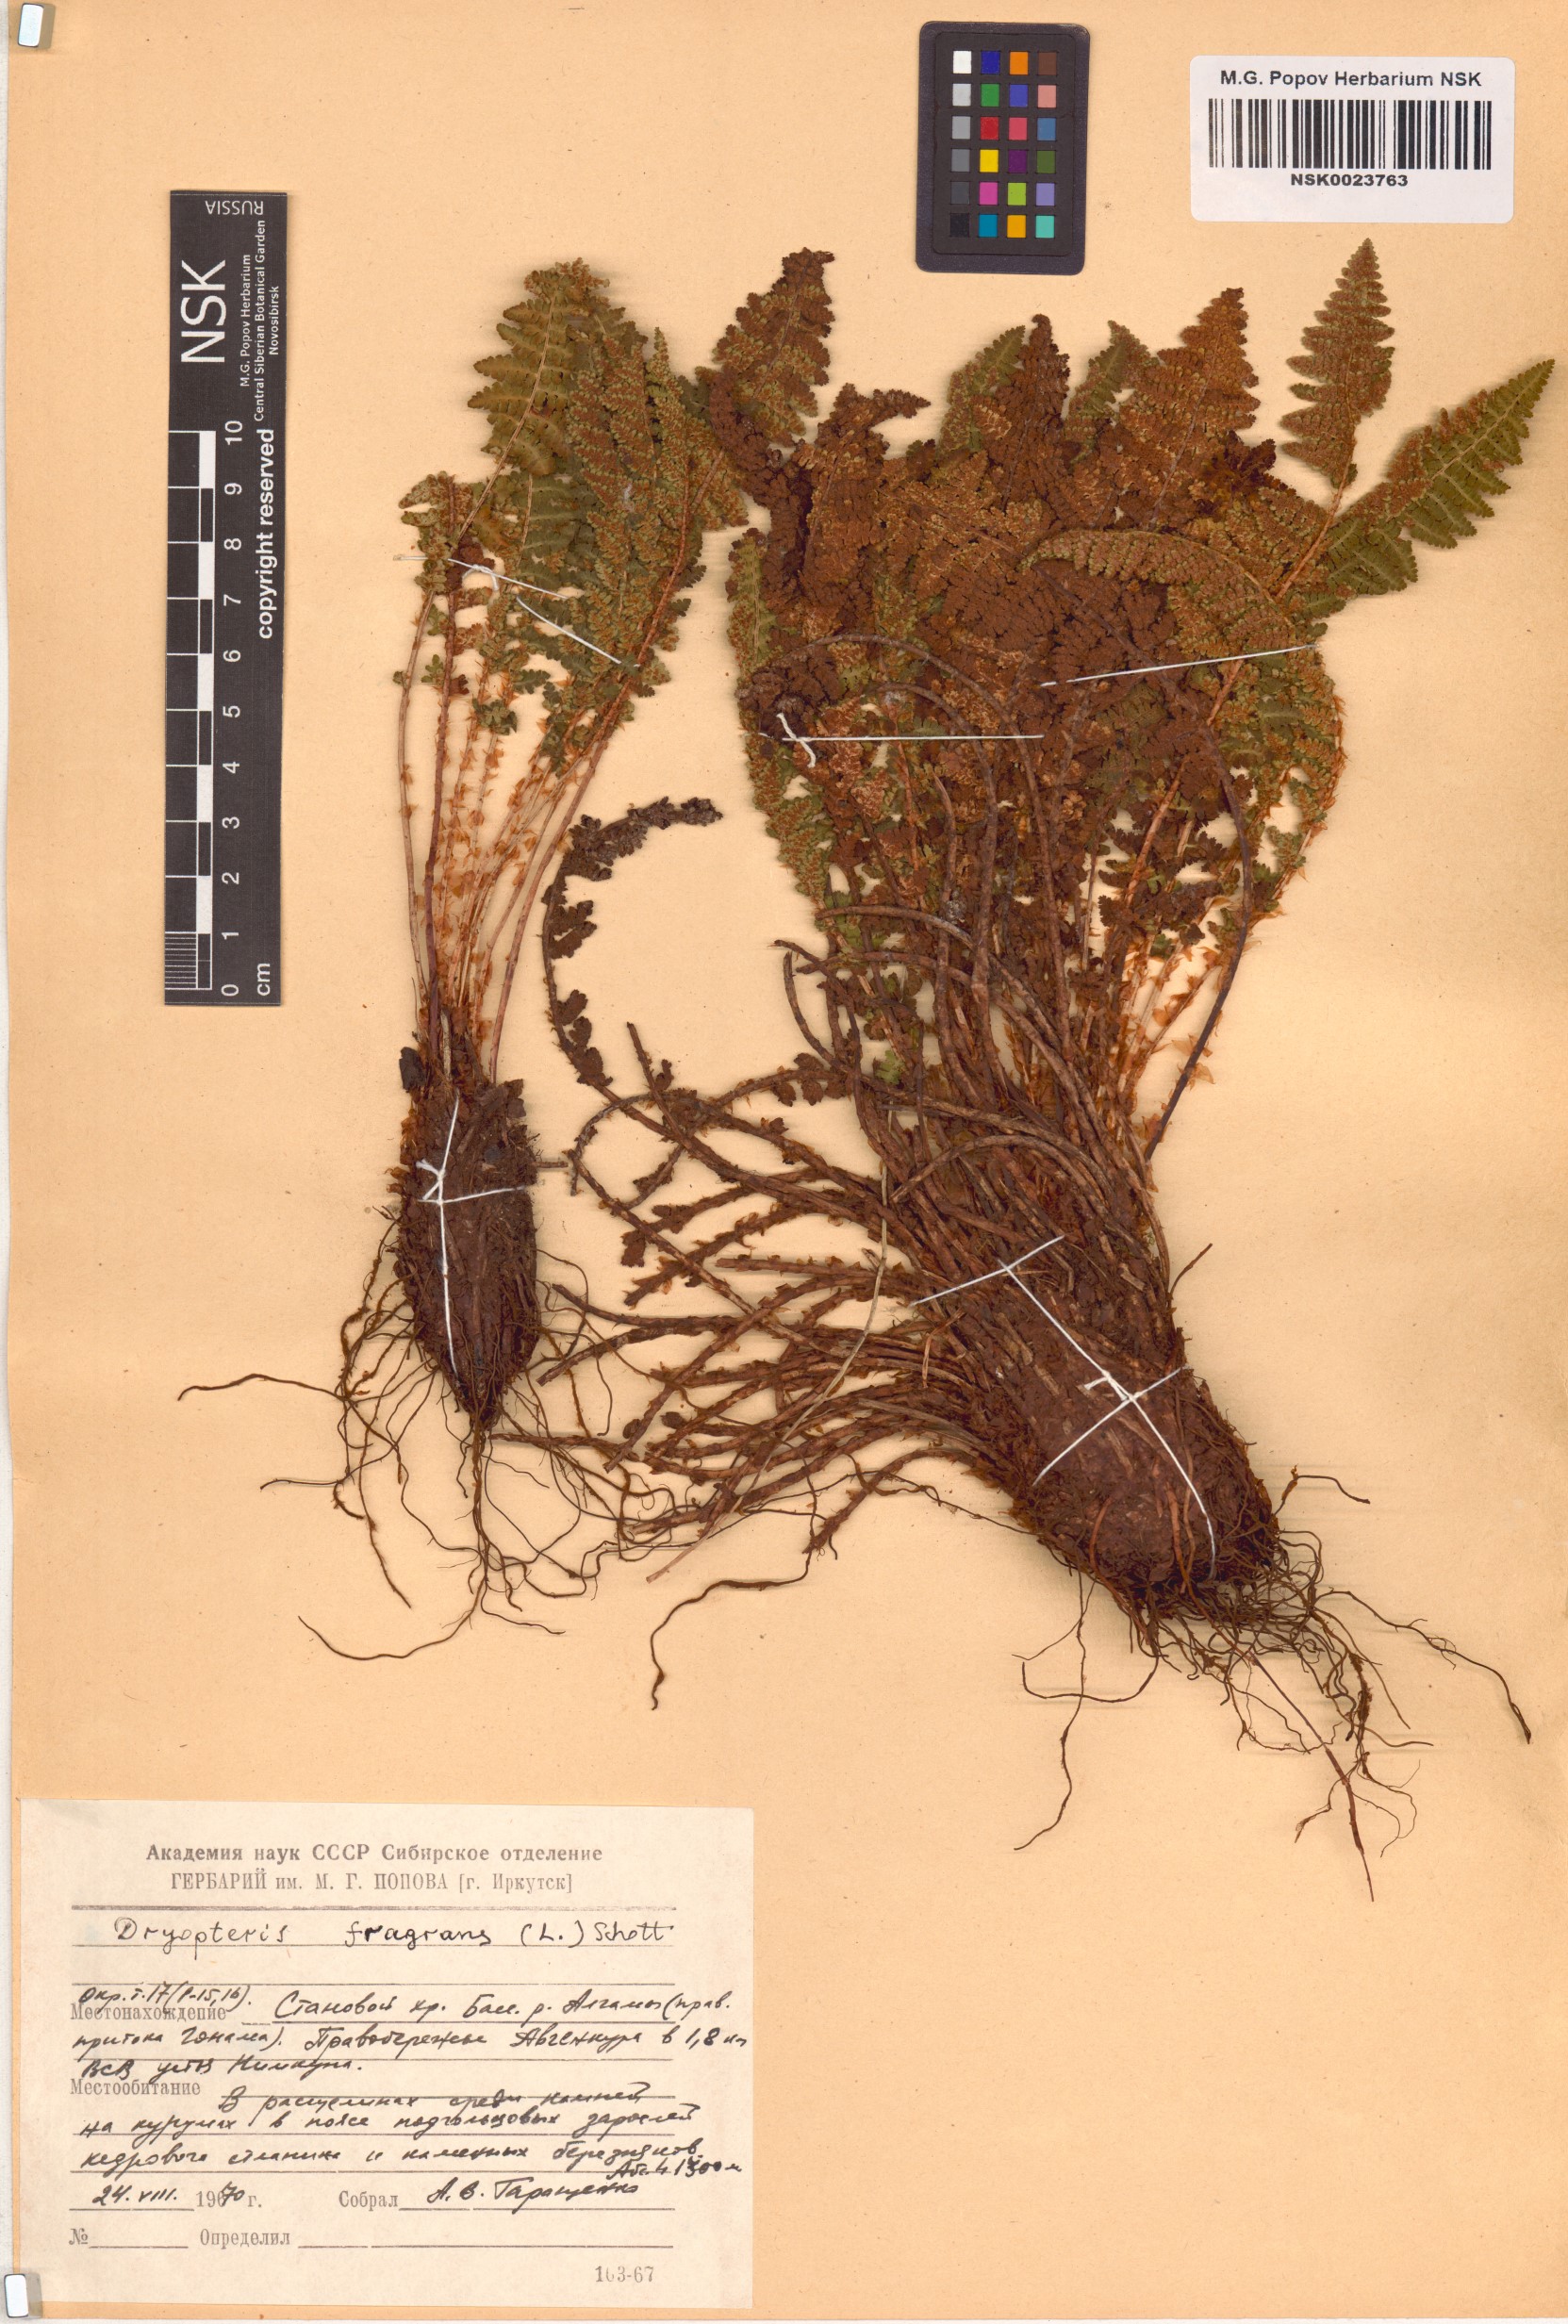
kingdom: Plantae
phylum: Tracheophyta
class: Polypodiopsida
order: Polypodiales
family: Dryopteridaceae
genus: Dryopteris
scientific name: Dryopteris fragrans
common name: Fragrant wood fern
